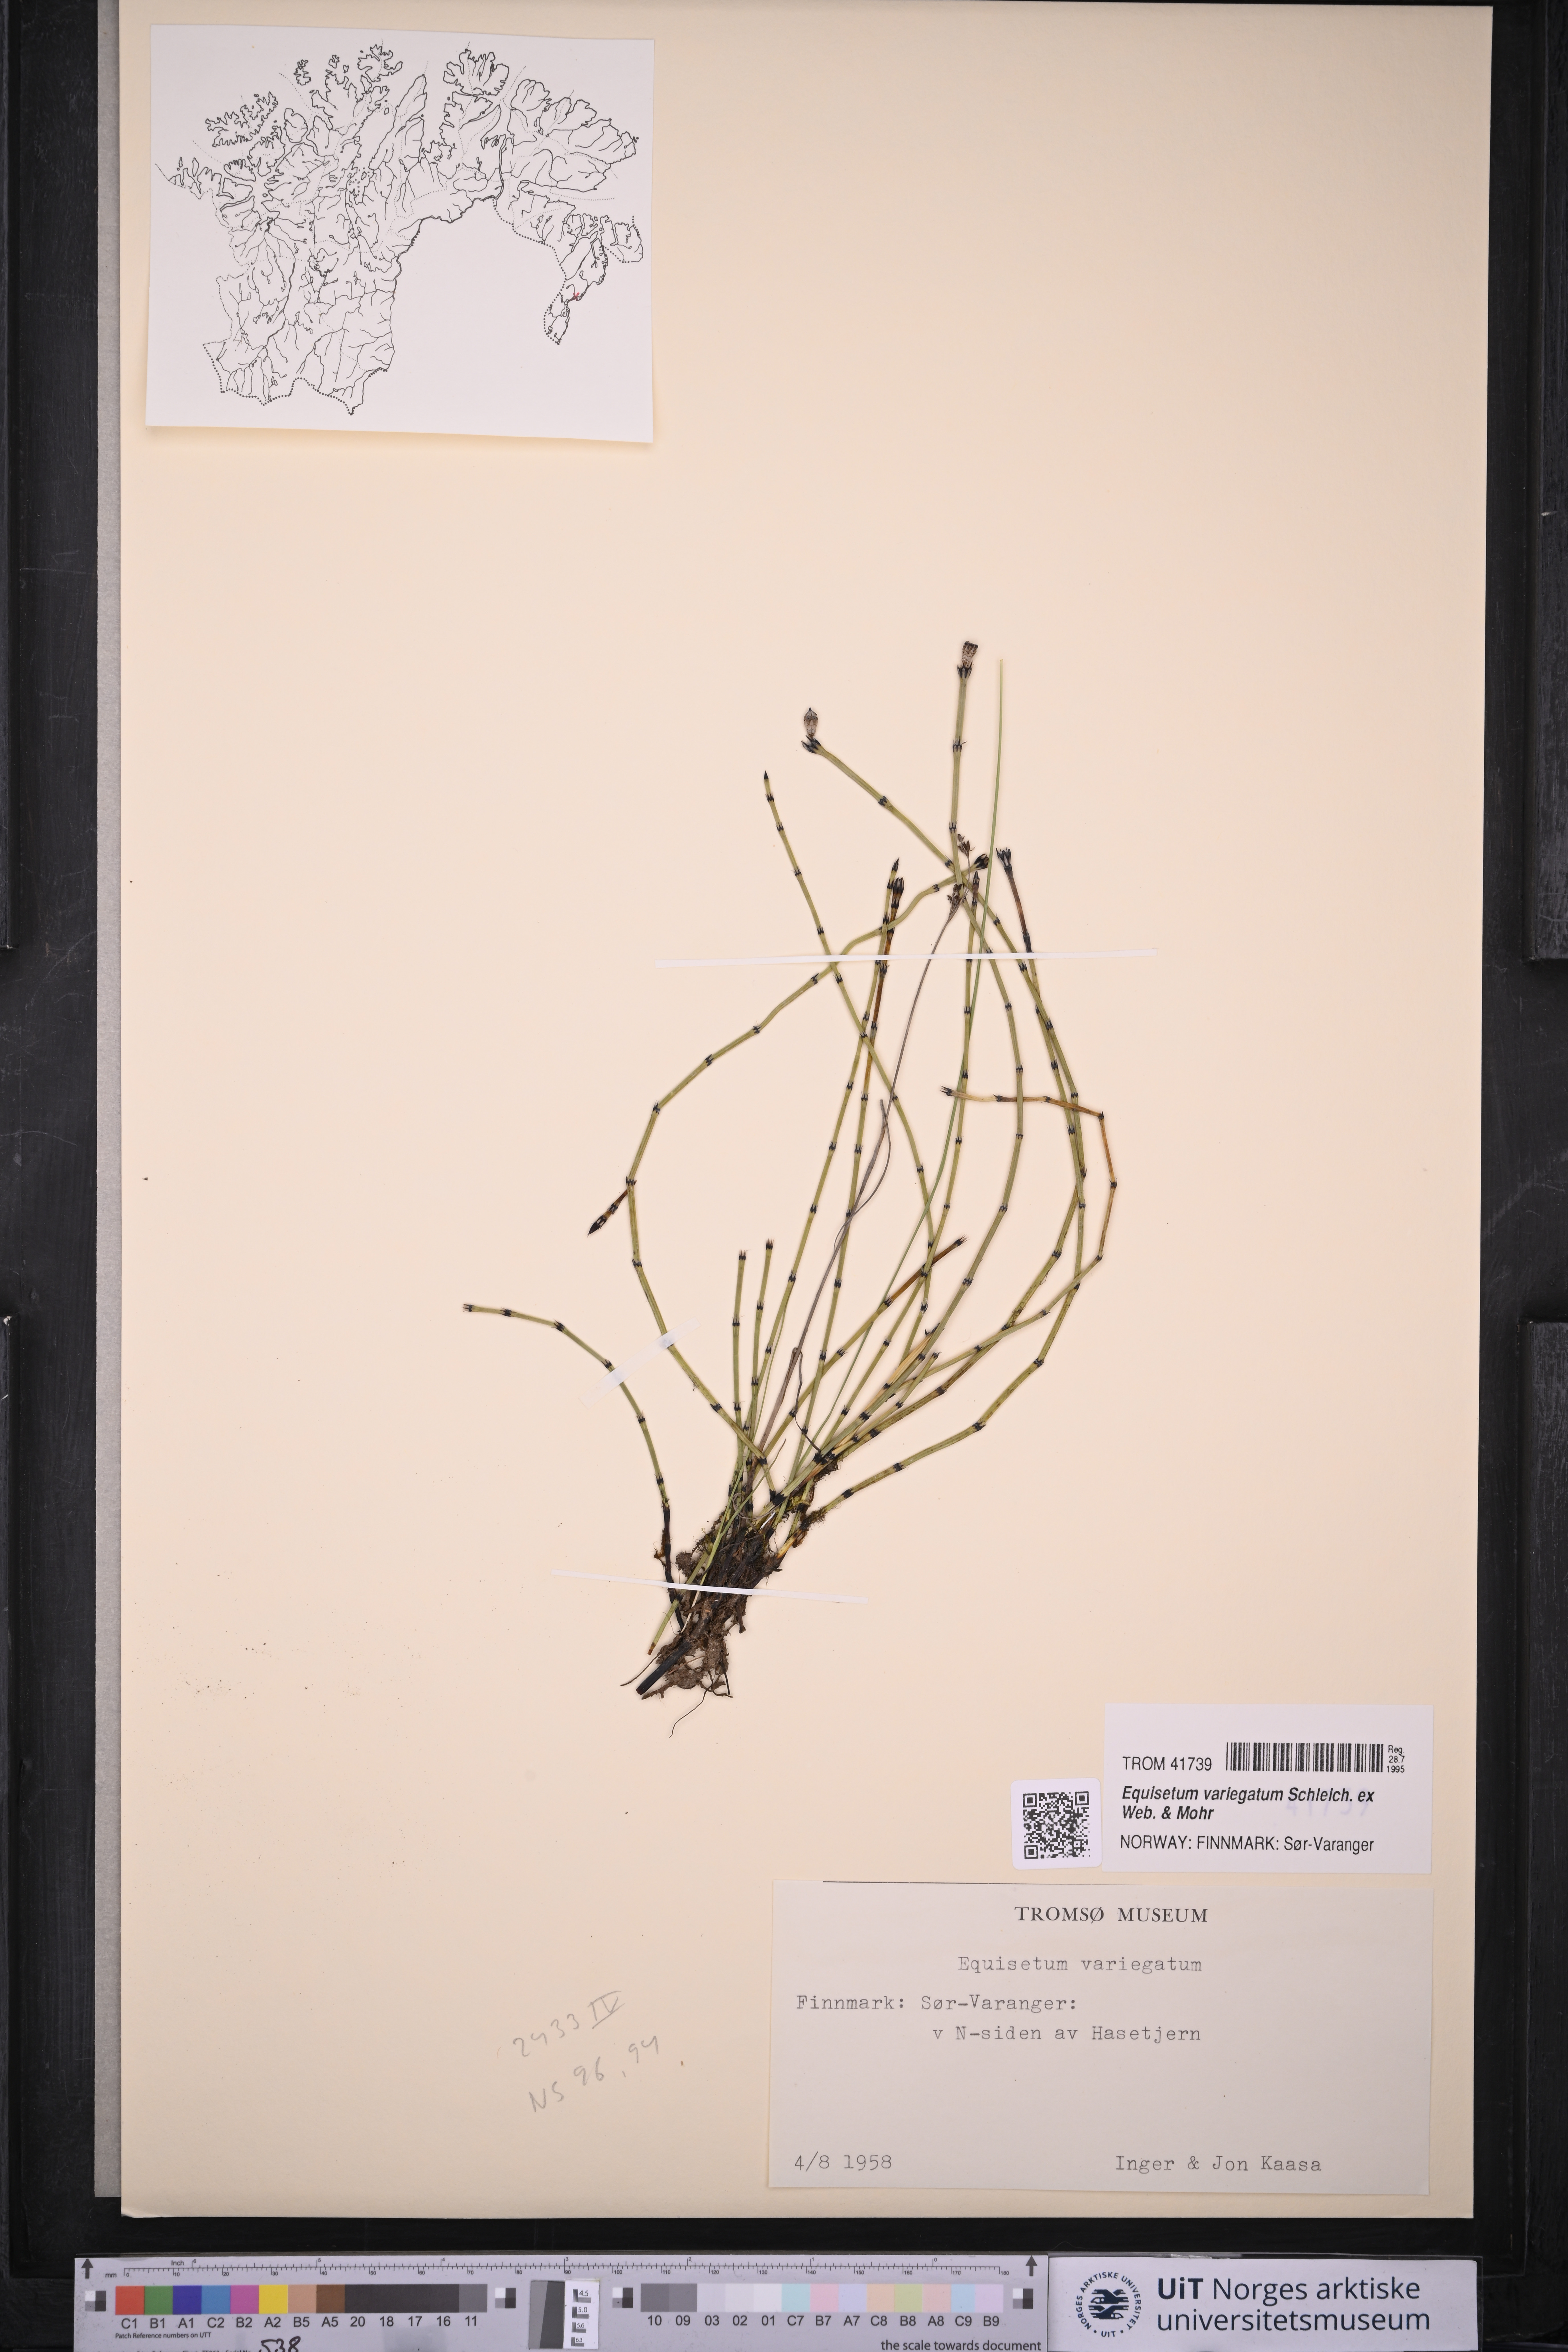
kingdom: Plantae
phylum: Tracheophyta
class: Polypodiopsida
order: Equisetales
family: Equisetaceae
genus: Equisetum
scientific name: Equisetum variegatum
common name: Variegated horsetail
